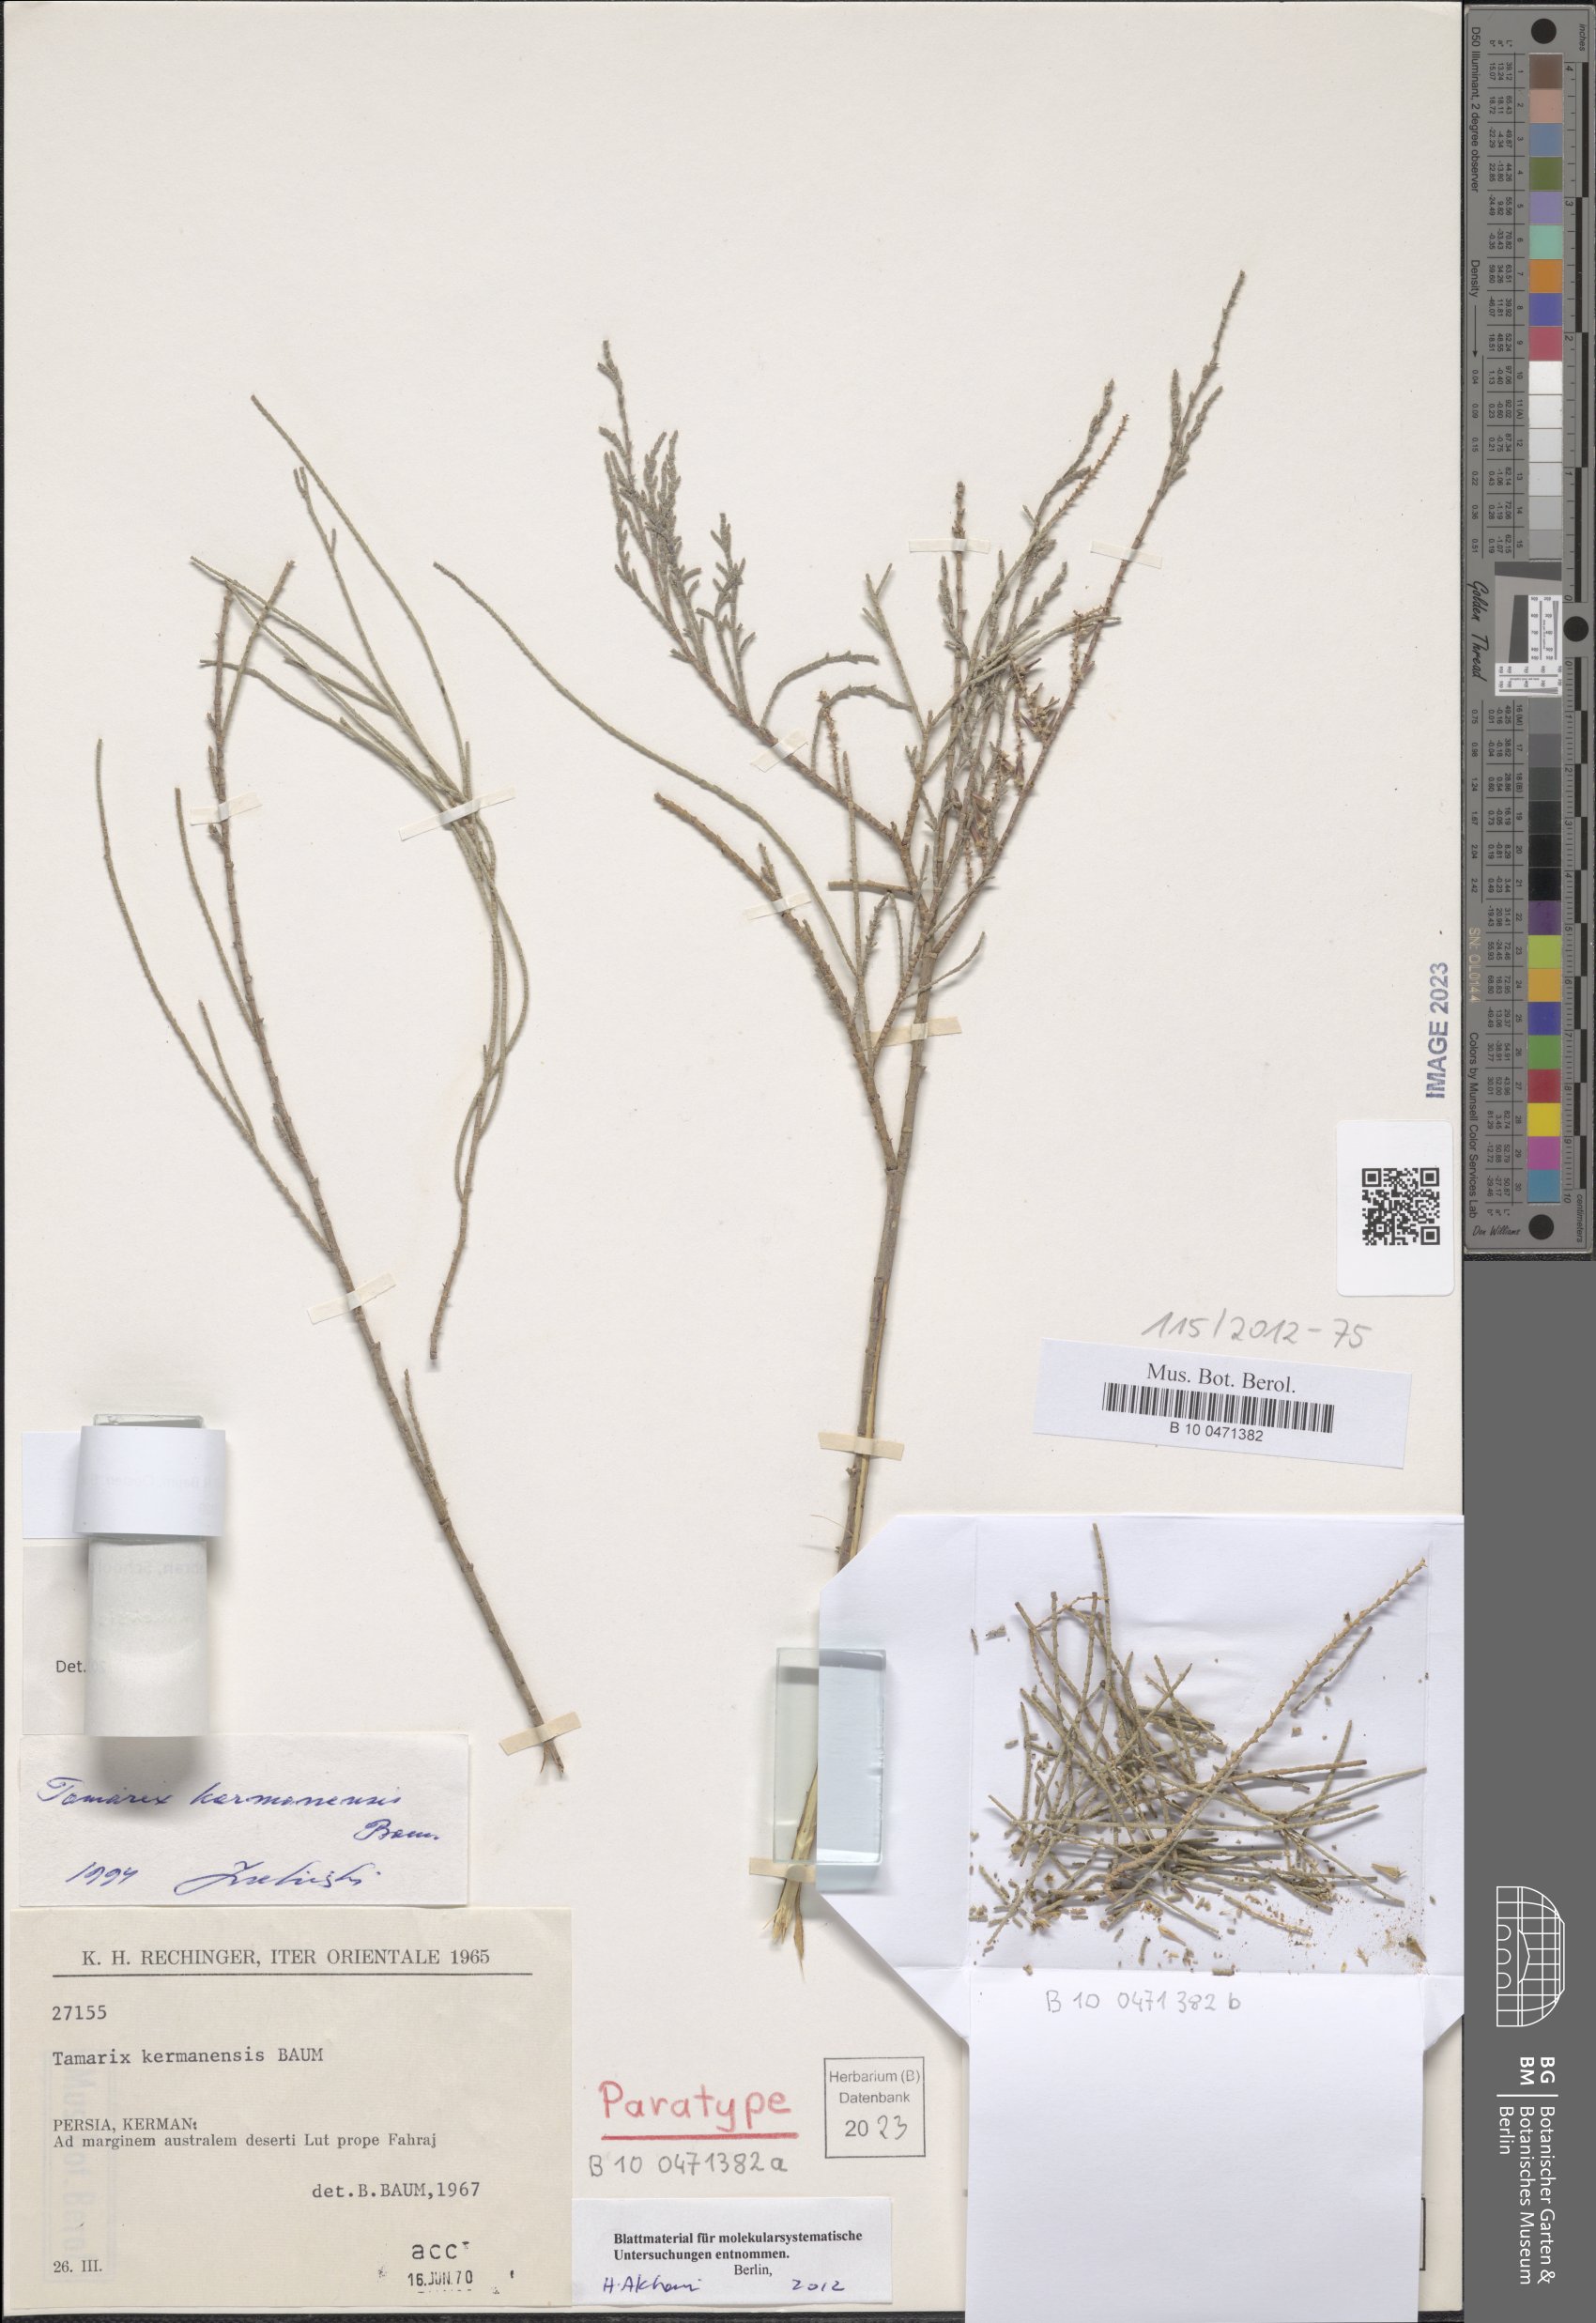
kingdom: Plantae
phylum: Tracheophyta
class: Magnoliopsida
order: Caryophyllales
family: Tamaricaceae
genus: Tamarix
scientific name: Tamarix stricta
